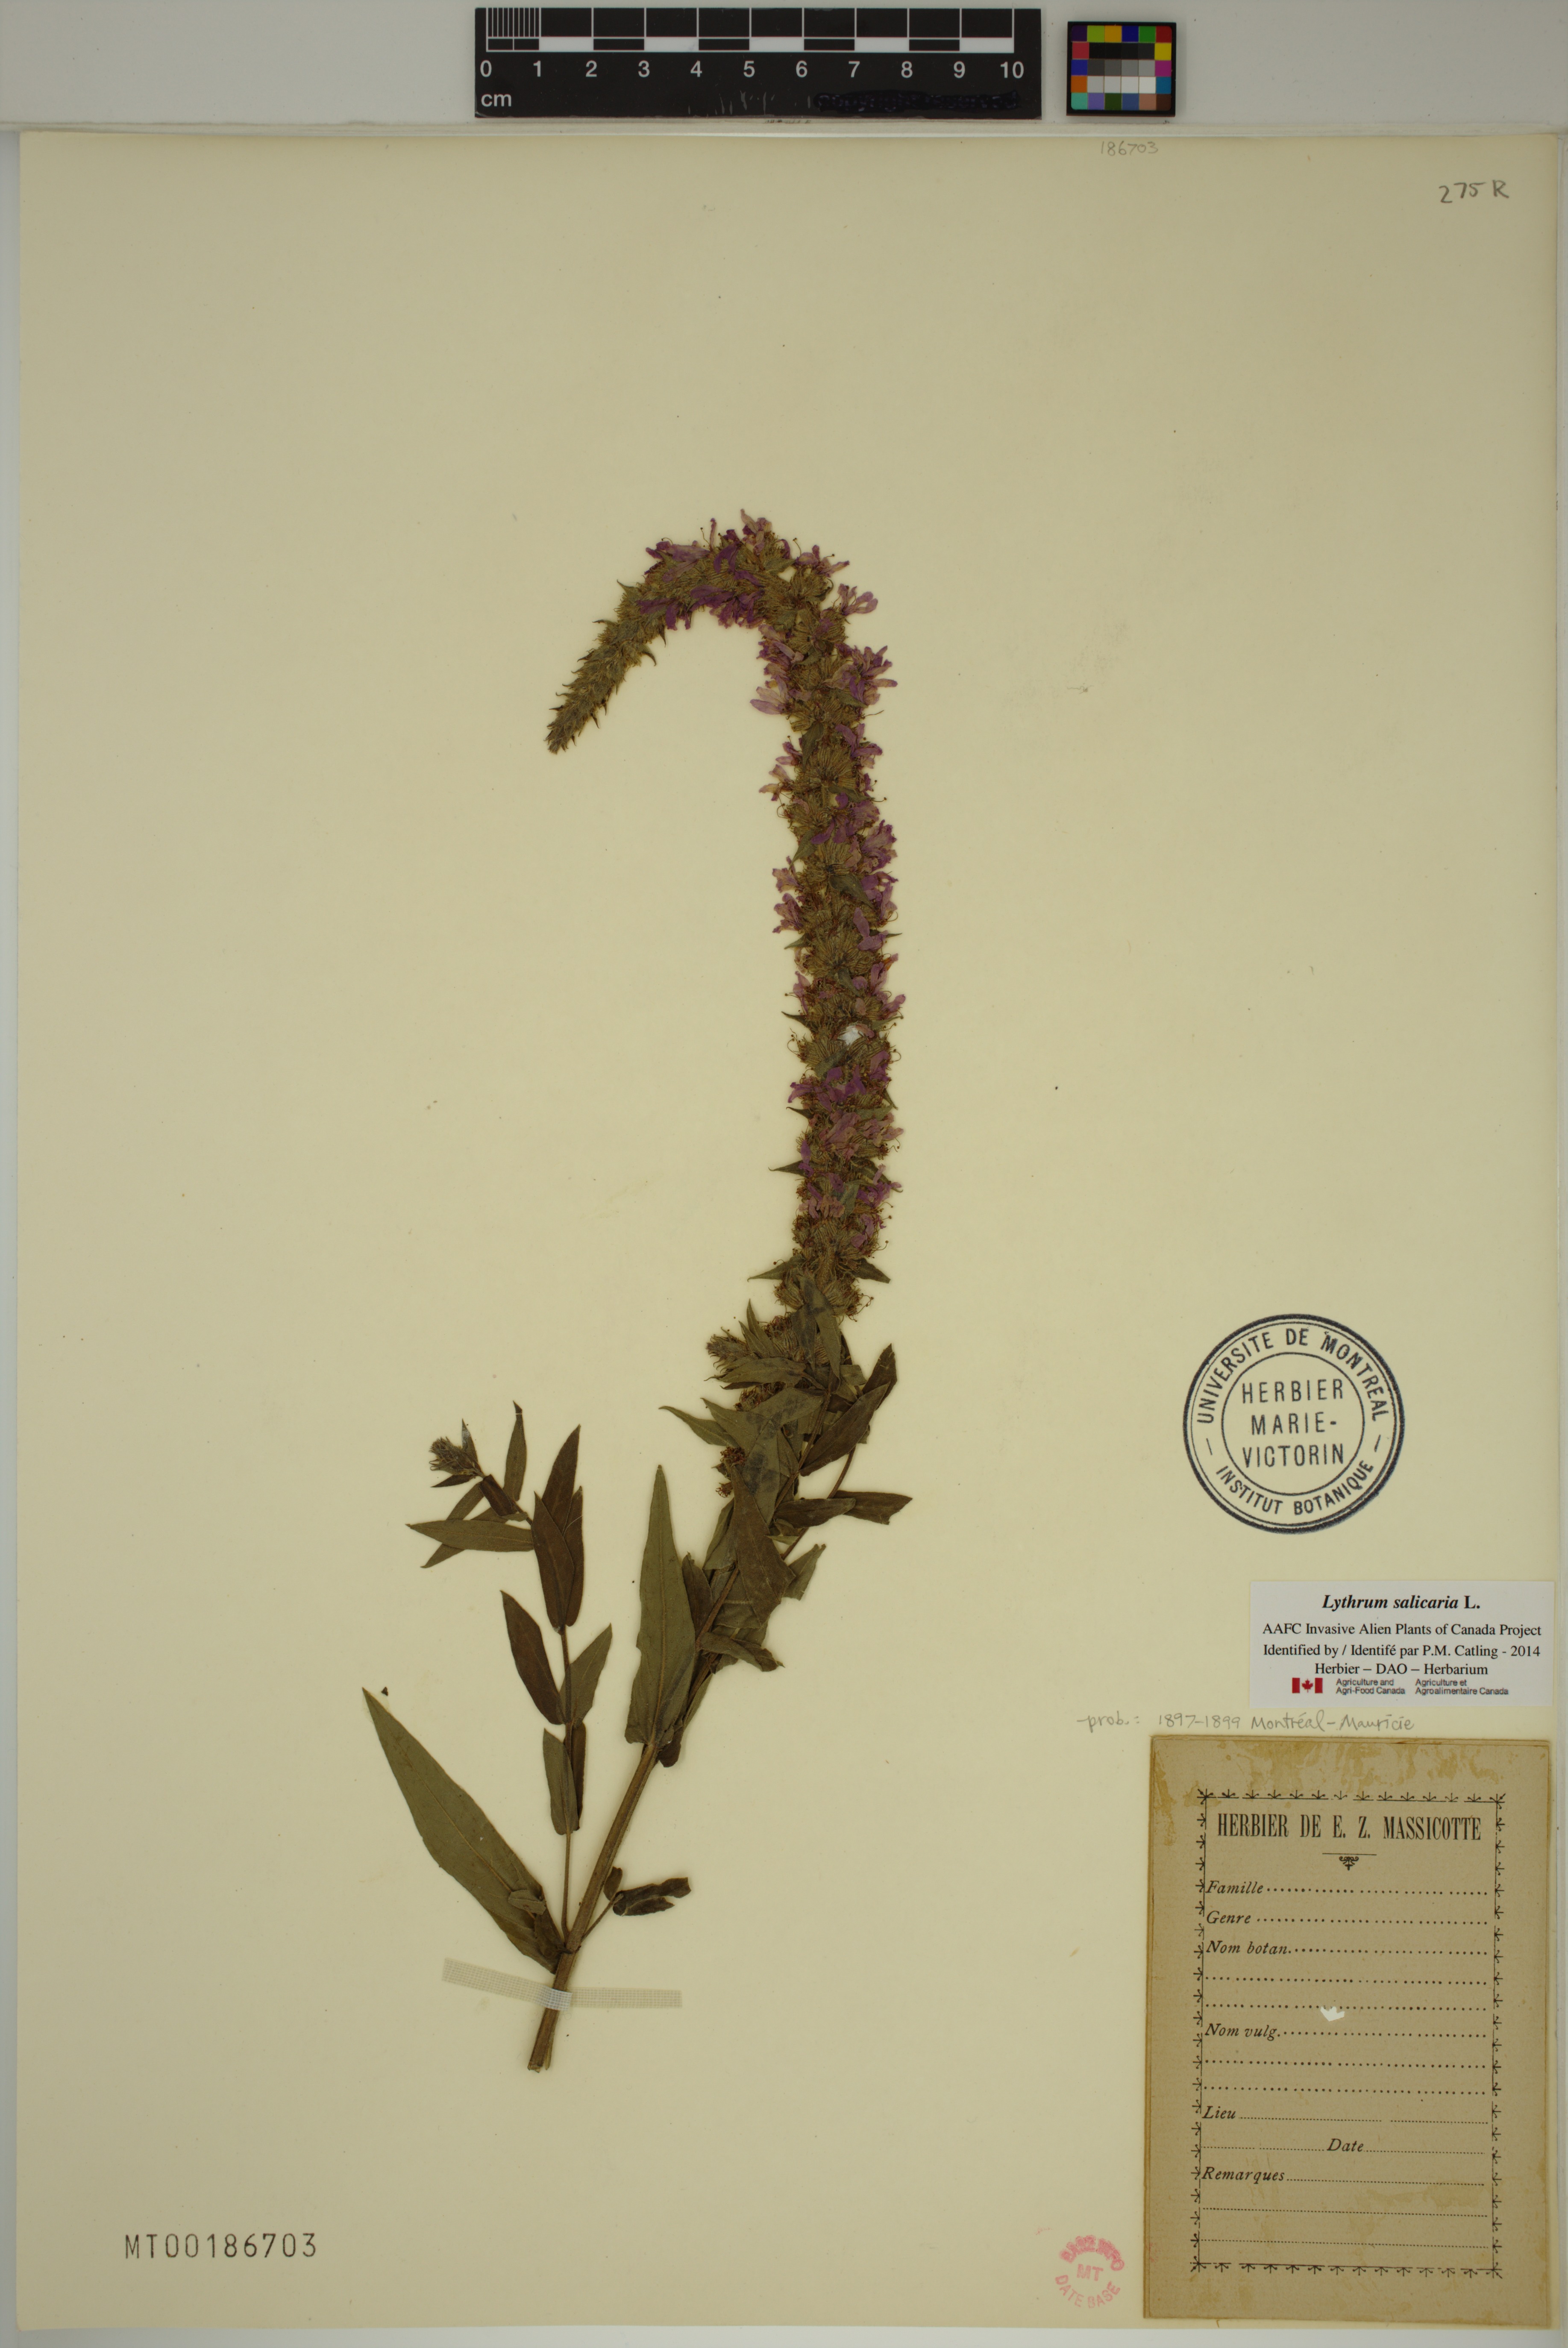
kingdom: Plantae
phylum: Tracheophyta
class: Magnoliopsida
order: Myrtales
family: Lythraceae
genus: Lythrum
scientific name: Lythrum salicaria
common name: Purple loosestrife
